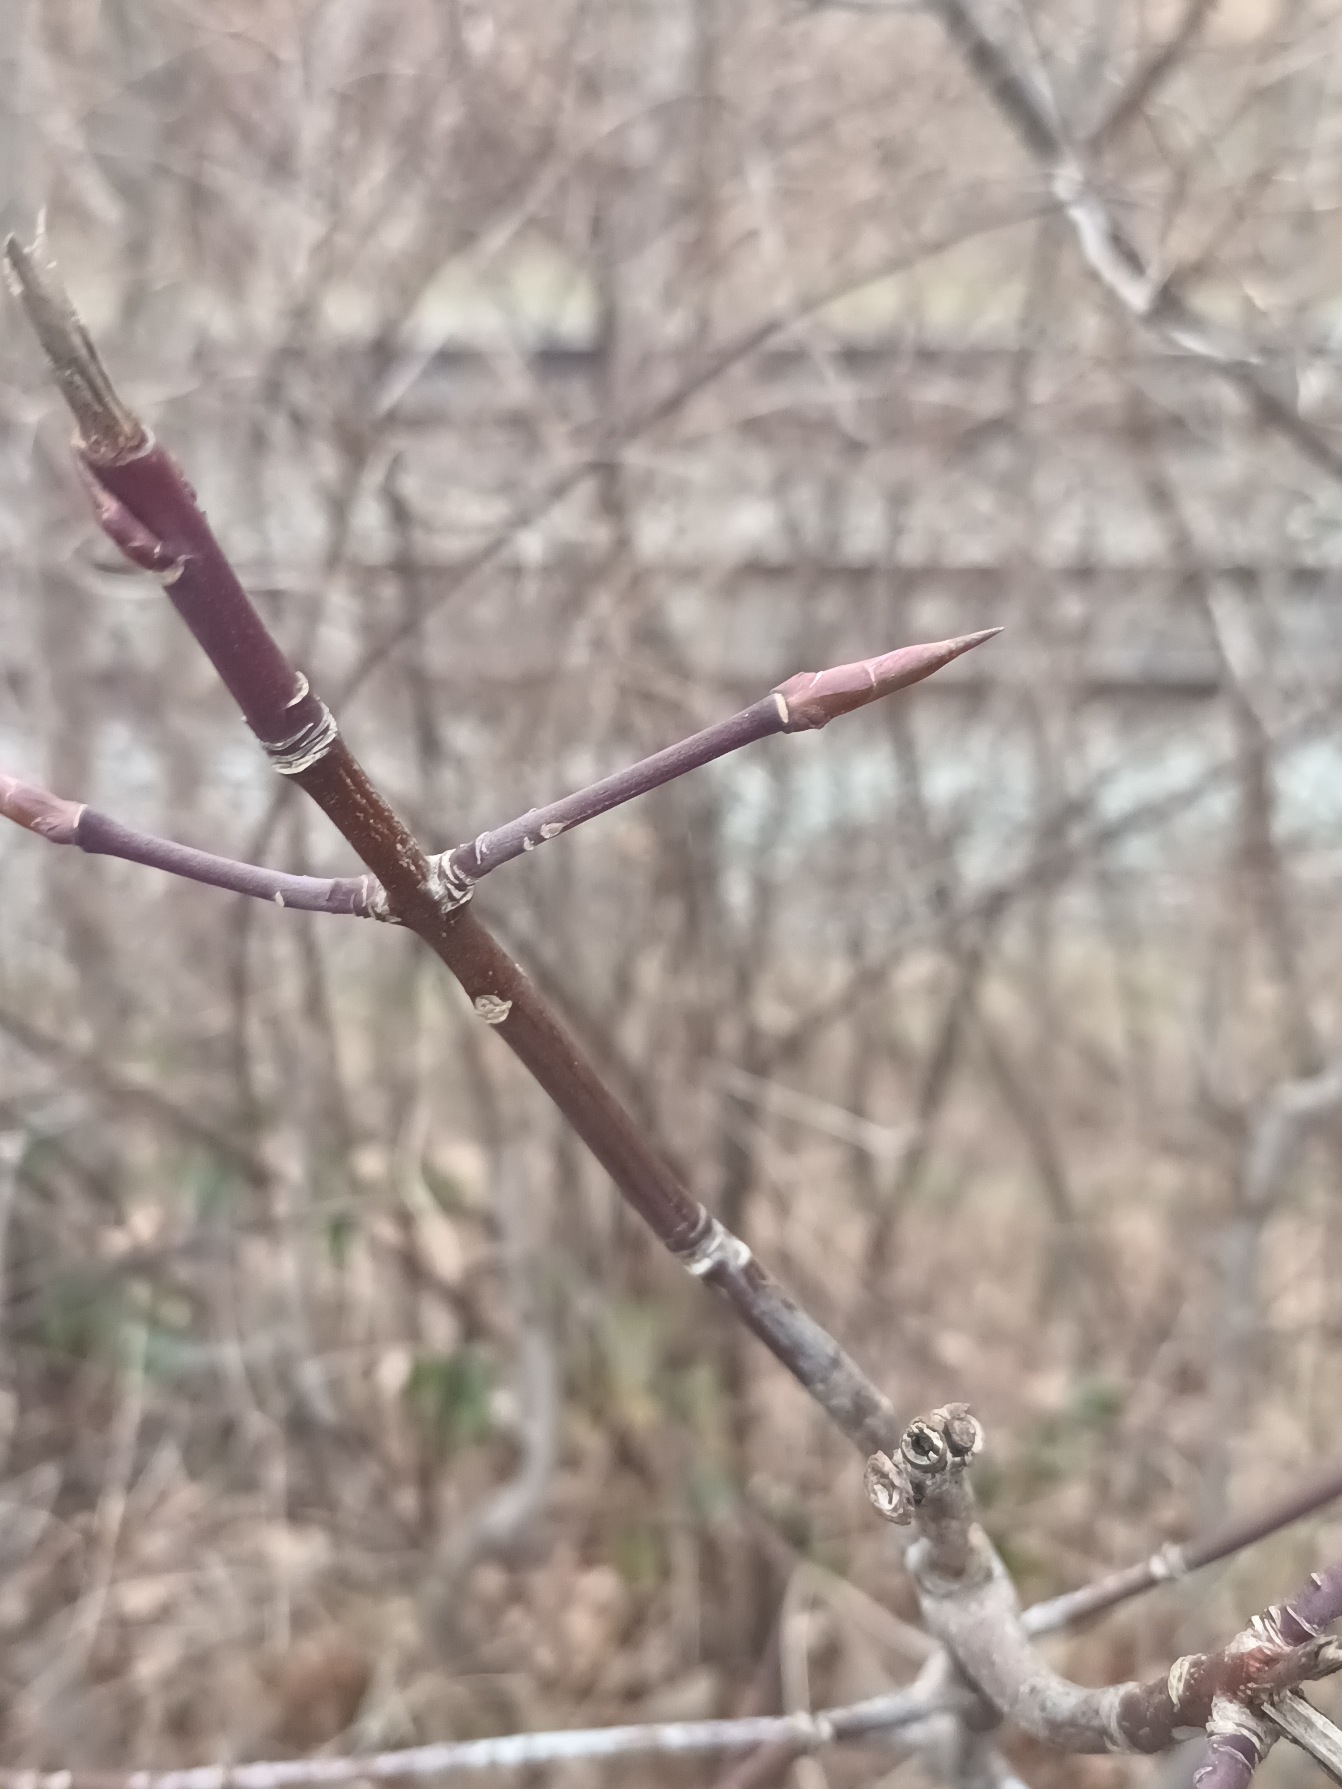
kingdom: Plantae
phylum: Tracheophyta
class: Magnoliopsida
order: Celastrales
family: Celastraceae
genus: Euonymus
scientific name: Euonymus latifolius
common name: Storbladet benved
